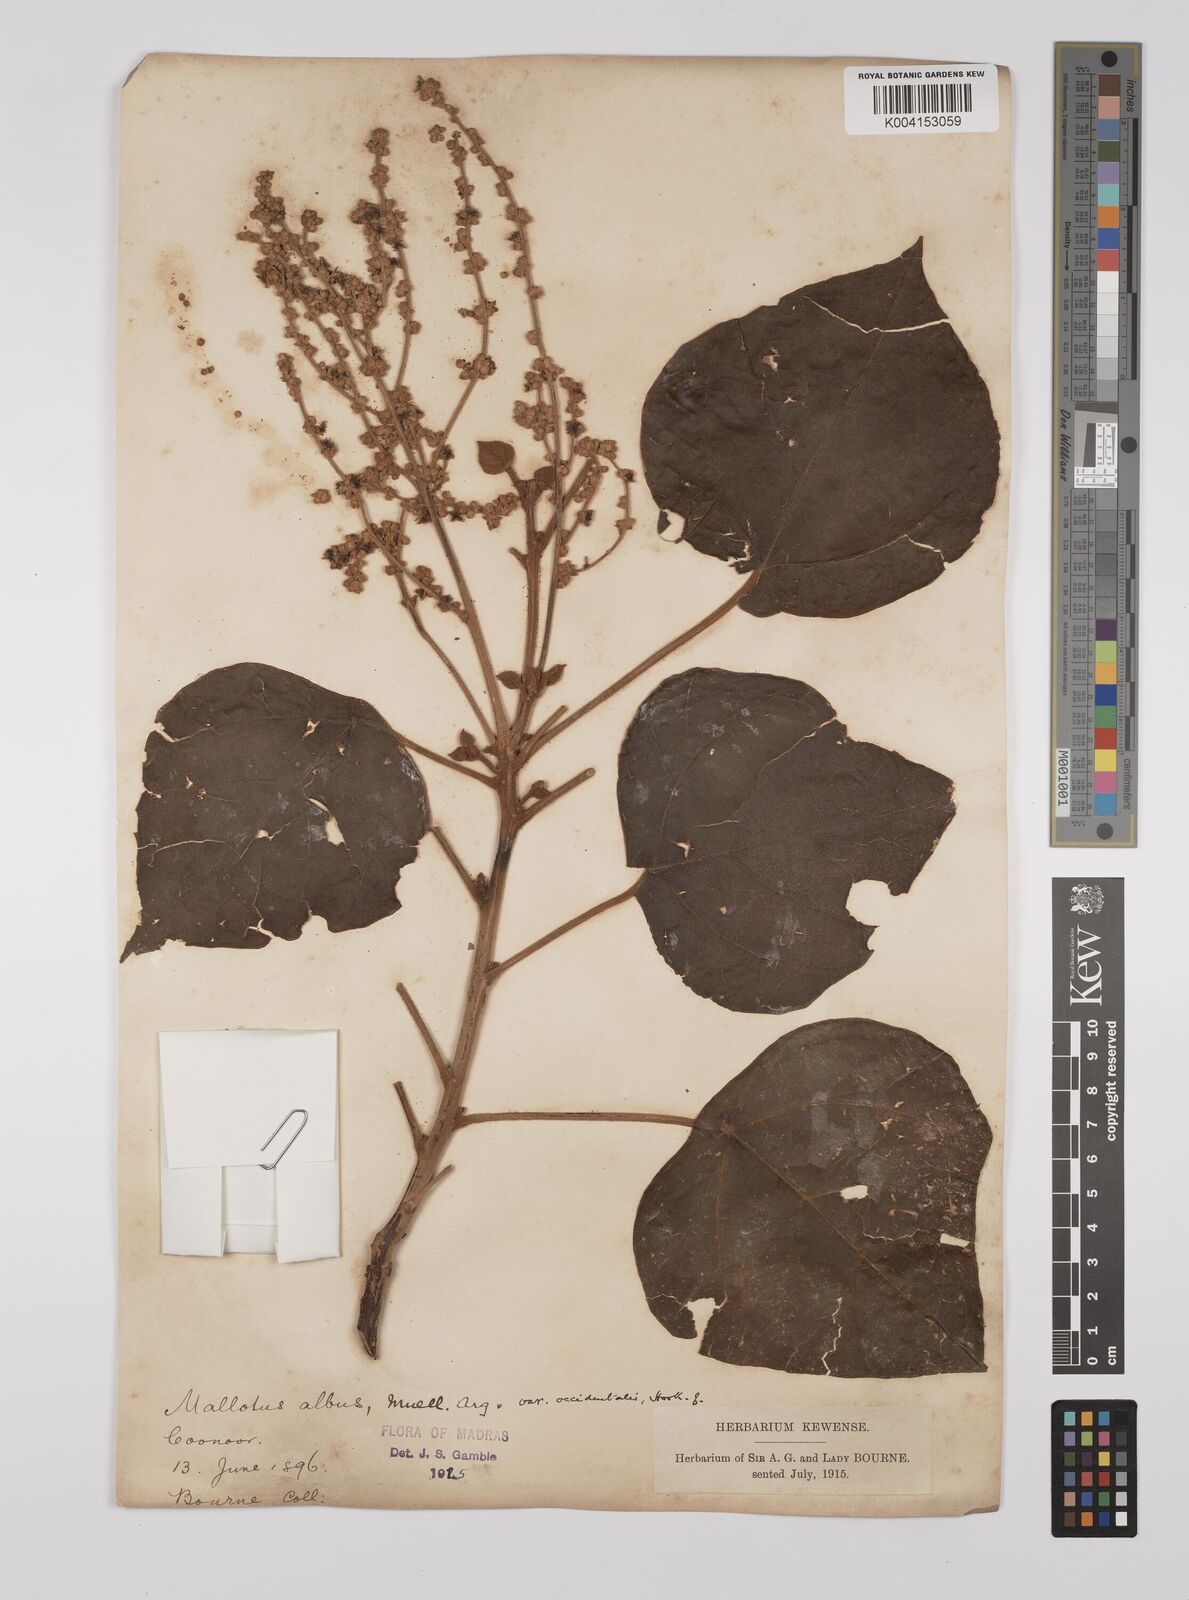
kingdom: Plantae
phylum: Tracheophyta
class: Magnoliopsida
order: Malpighiales
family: Euphorbiaceae
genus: Mallotus
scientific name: Mallotus tetracoccus
